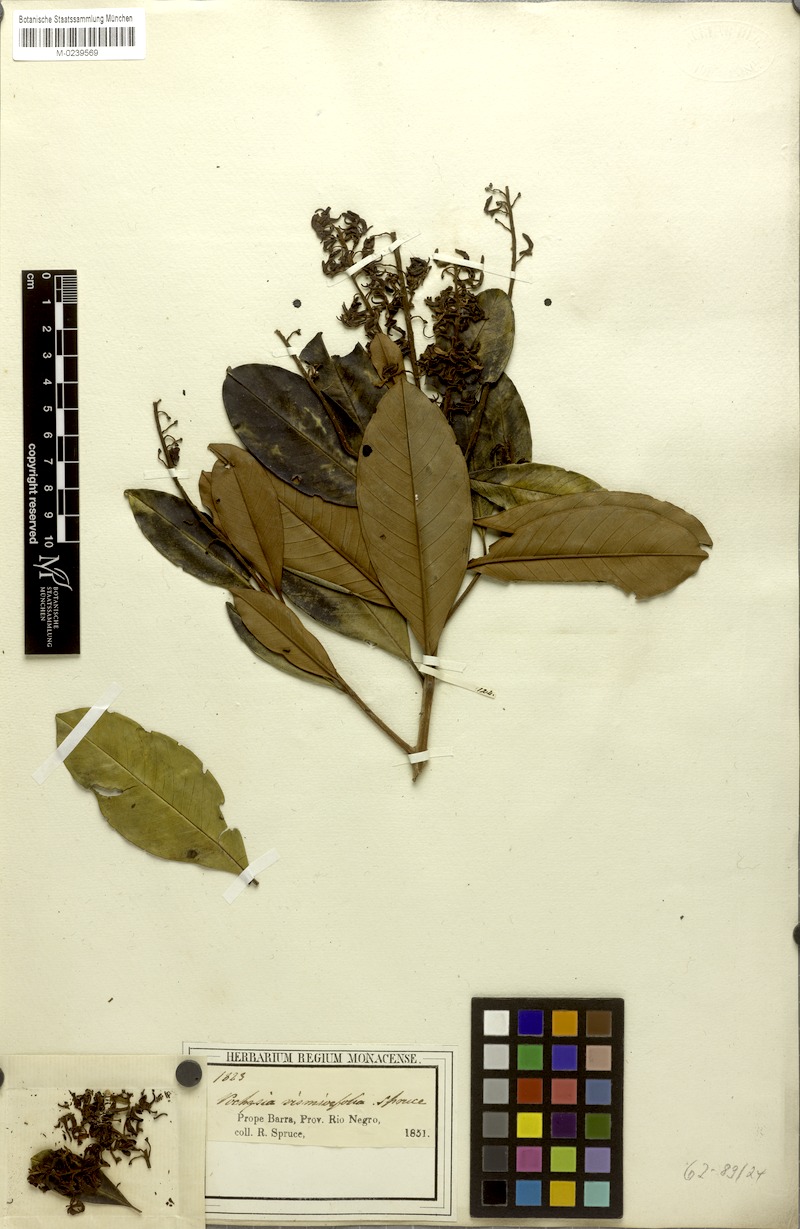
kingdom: Plantae
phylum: Tracheophyta
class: Magnoliopsida
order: Myrtales
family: Vochysiaceae
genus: Vochysia
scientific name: Vochysia vismiifolia
